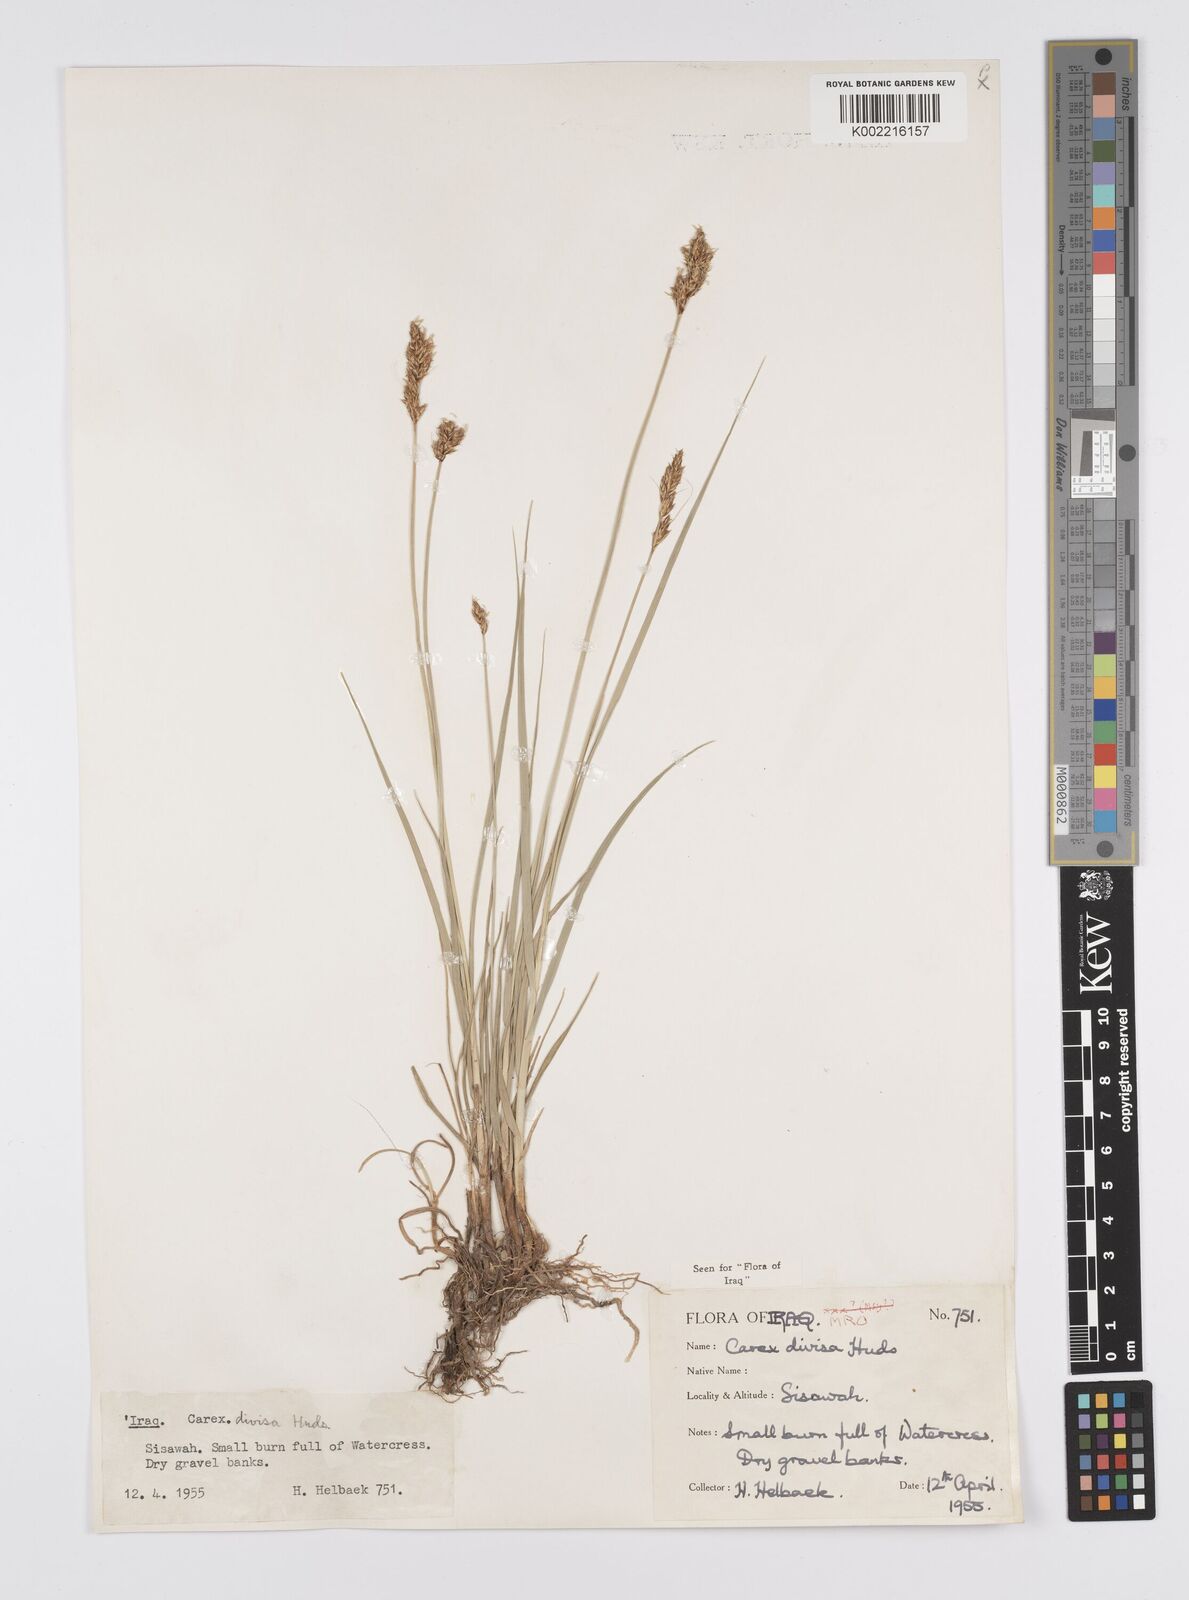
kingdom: Plantae
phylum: Tracheophyta
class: Liliopsida
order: Poales
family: Cyperaceae
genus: Carex
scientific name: Carex divisa
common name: Divided sedge
